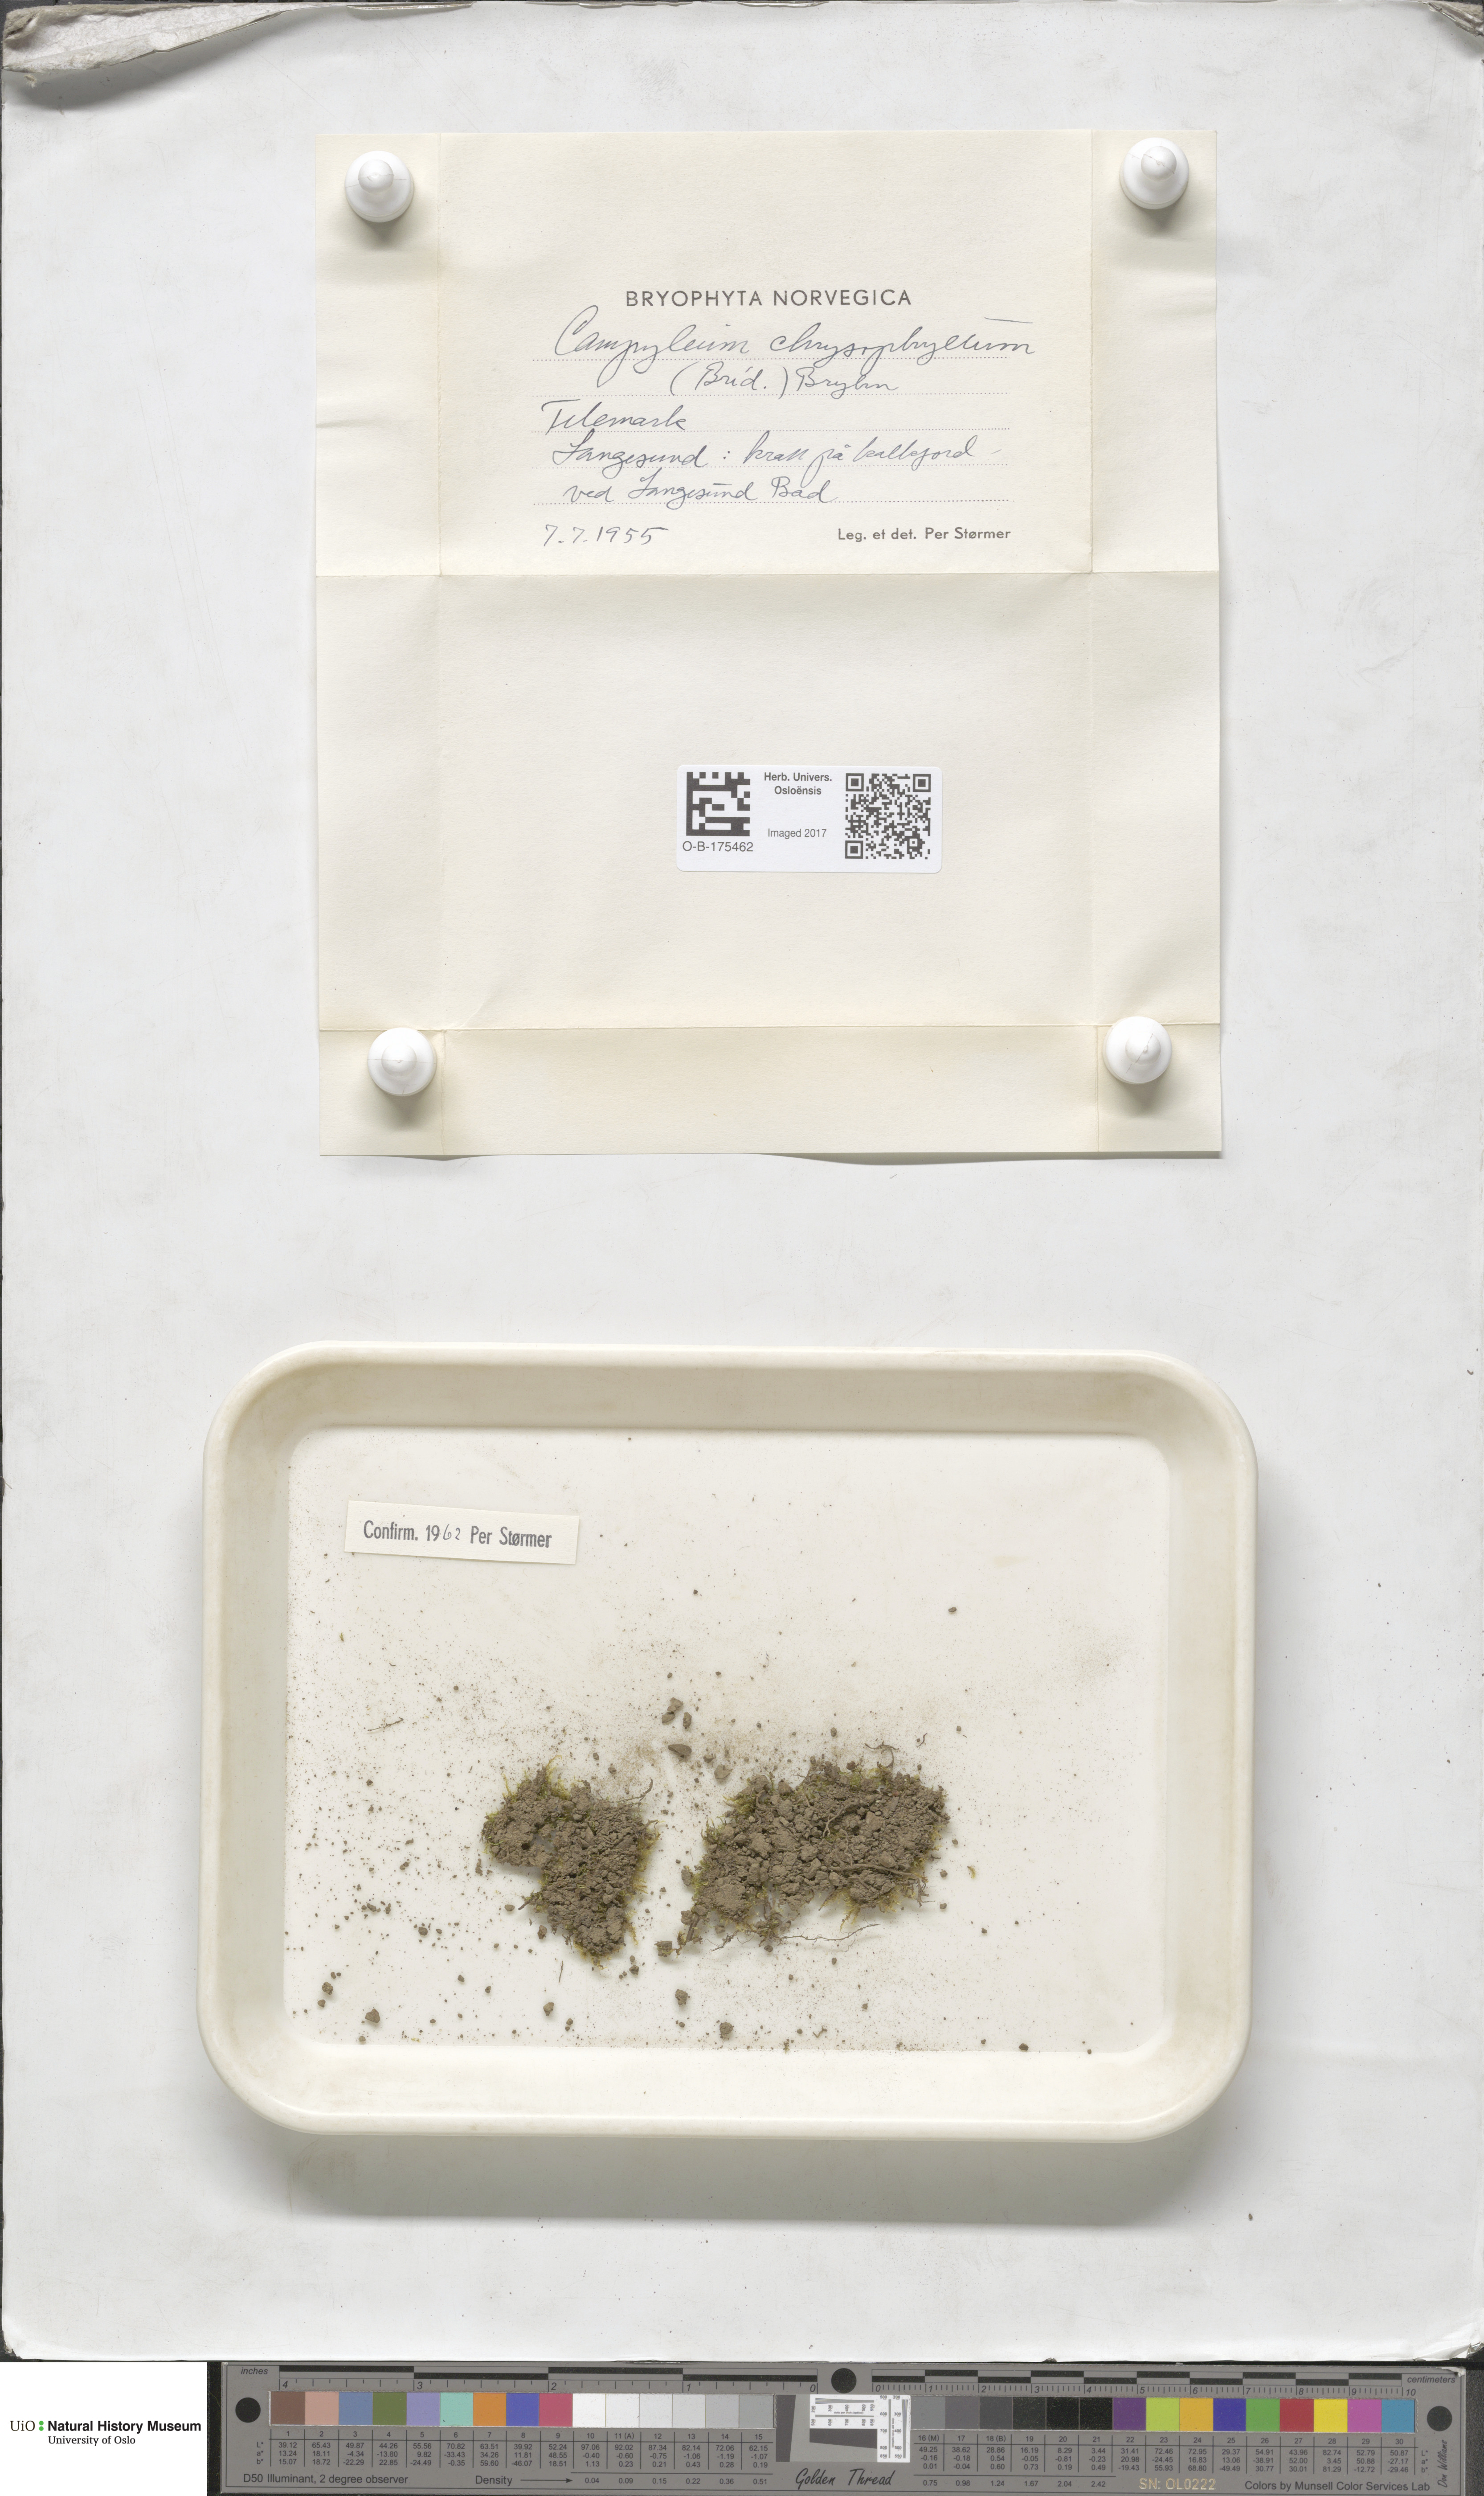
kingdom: Plantae
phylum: Bryophyta
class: Bryopsida
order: Hypnales
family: Amblystegiaceae
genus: Campylium
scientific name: Campylium chrysophyllum
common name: Goldenleaf campylium moss
